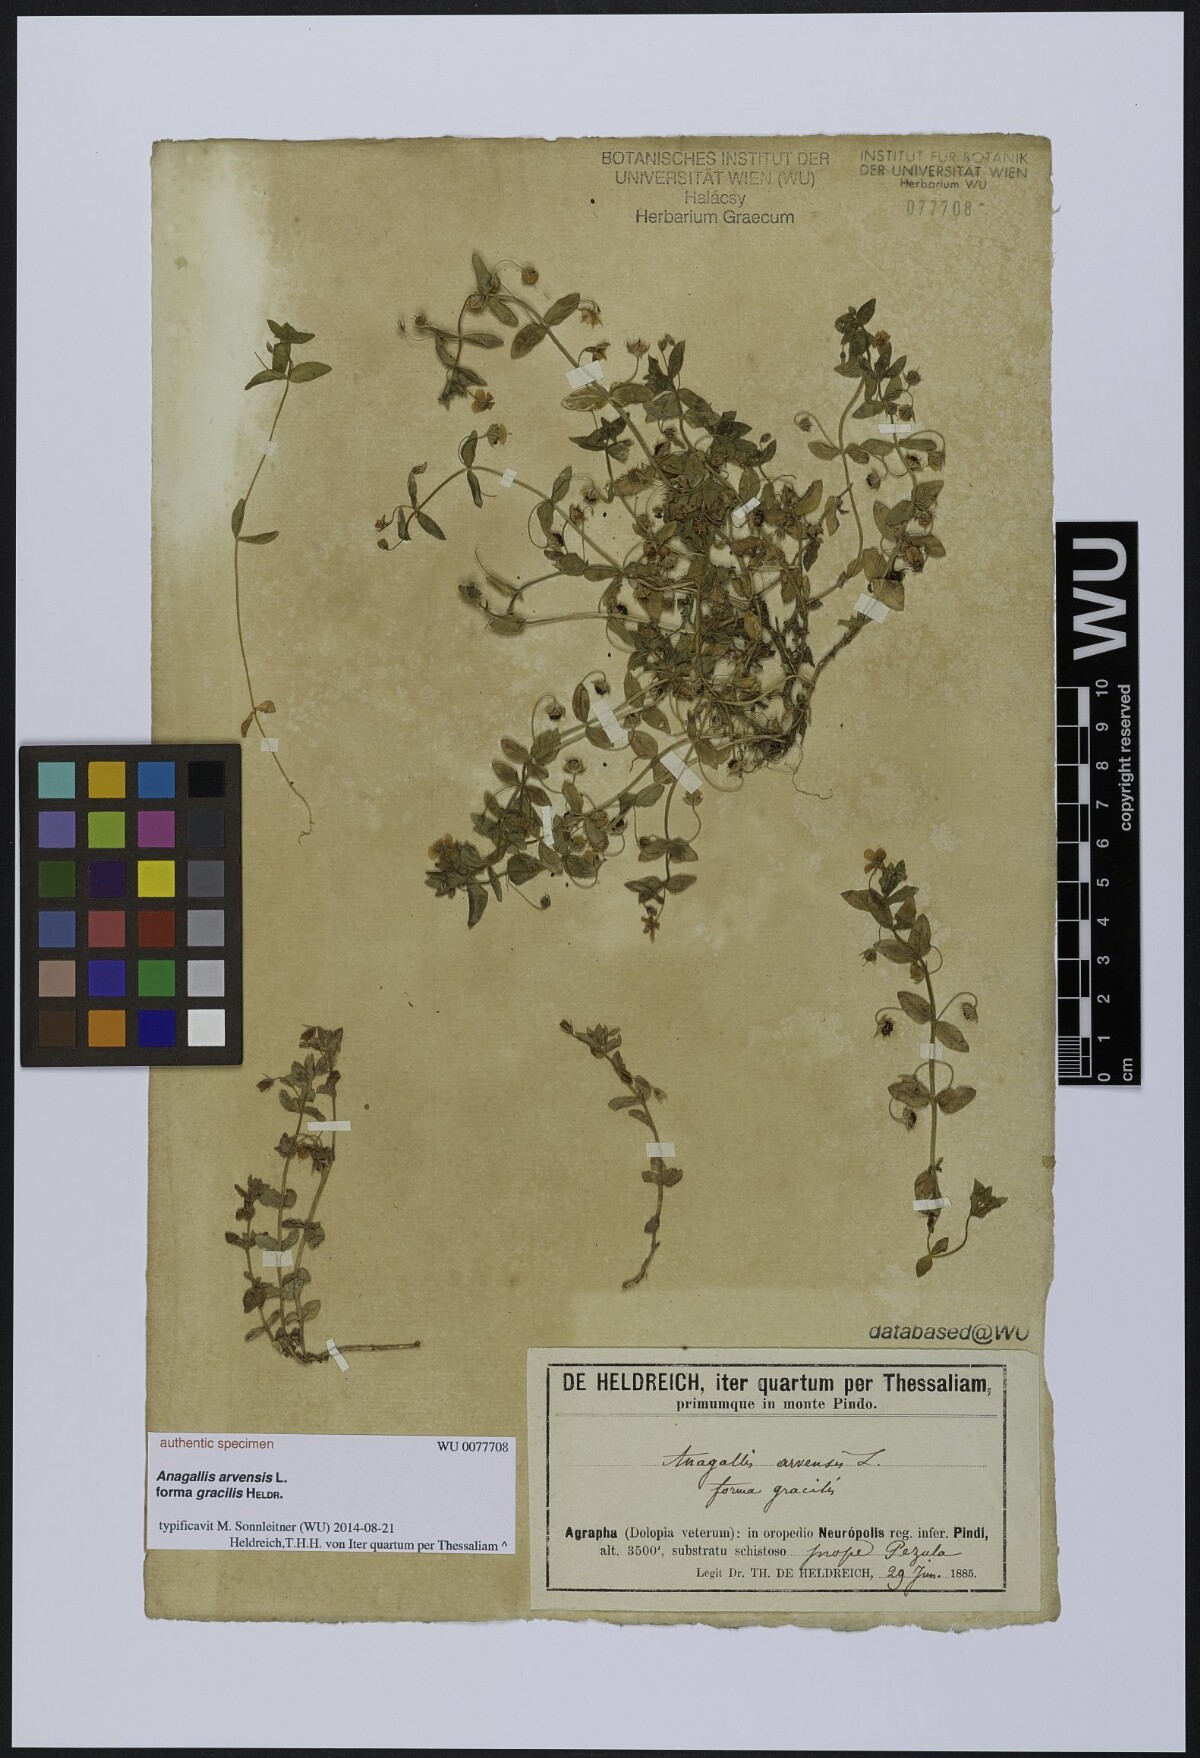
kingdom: Plantae
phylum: Tracheophyta
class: Magnoliopsida
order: Ericales
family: Primulaceae
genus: Lysimachia
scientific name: Lysimachia arvensis
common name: Scarlet pimpernel
